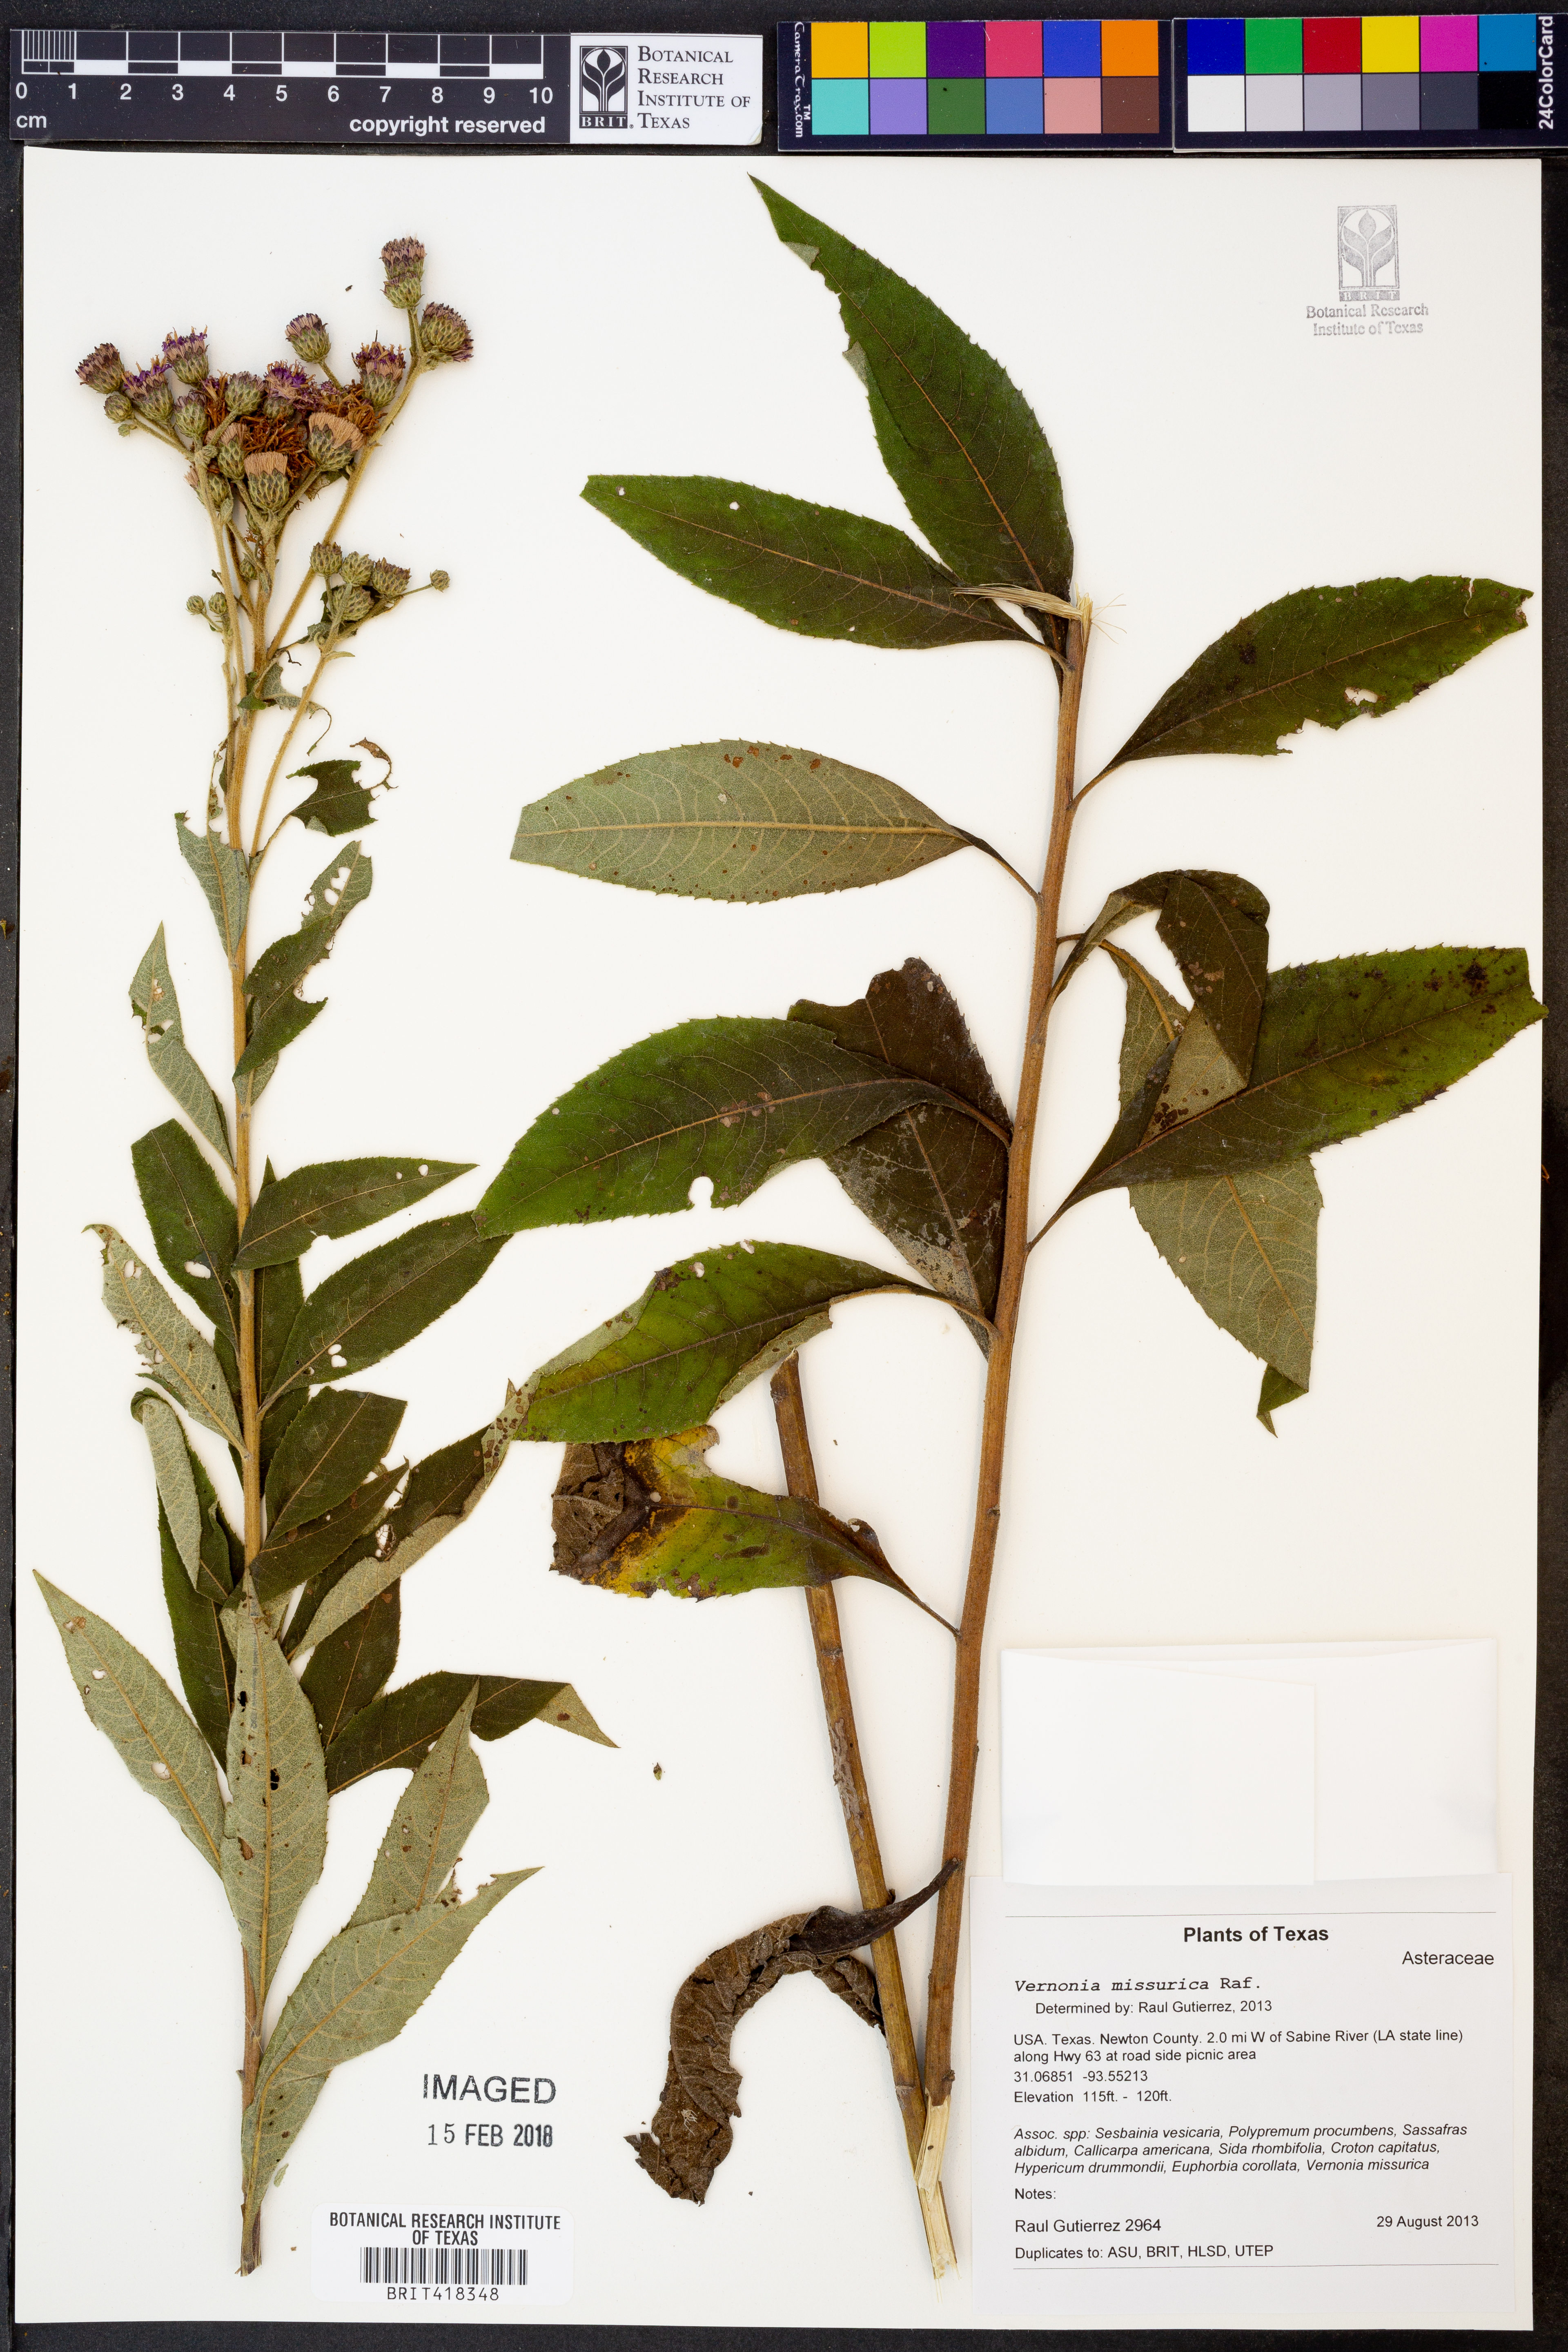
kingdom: Plantae
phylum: Tracheophyta
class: Magnoliopsida
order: Asterales
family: Asteraceae
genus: Vernonia
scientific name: Vernonia missurica
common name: Missouri ironweed
